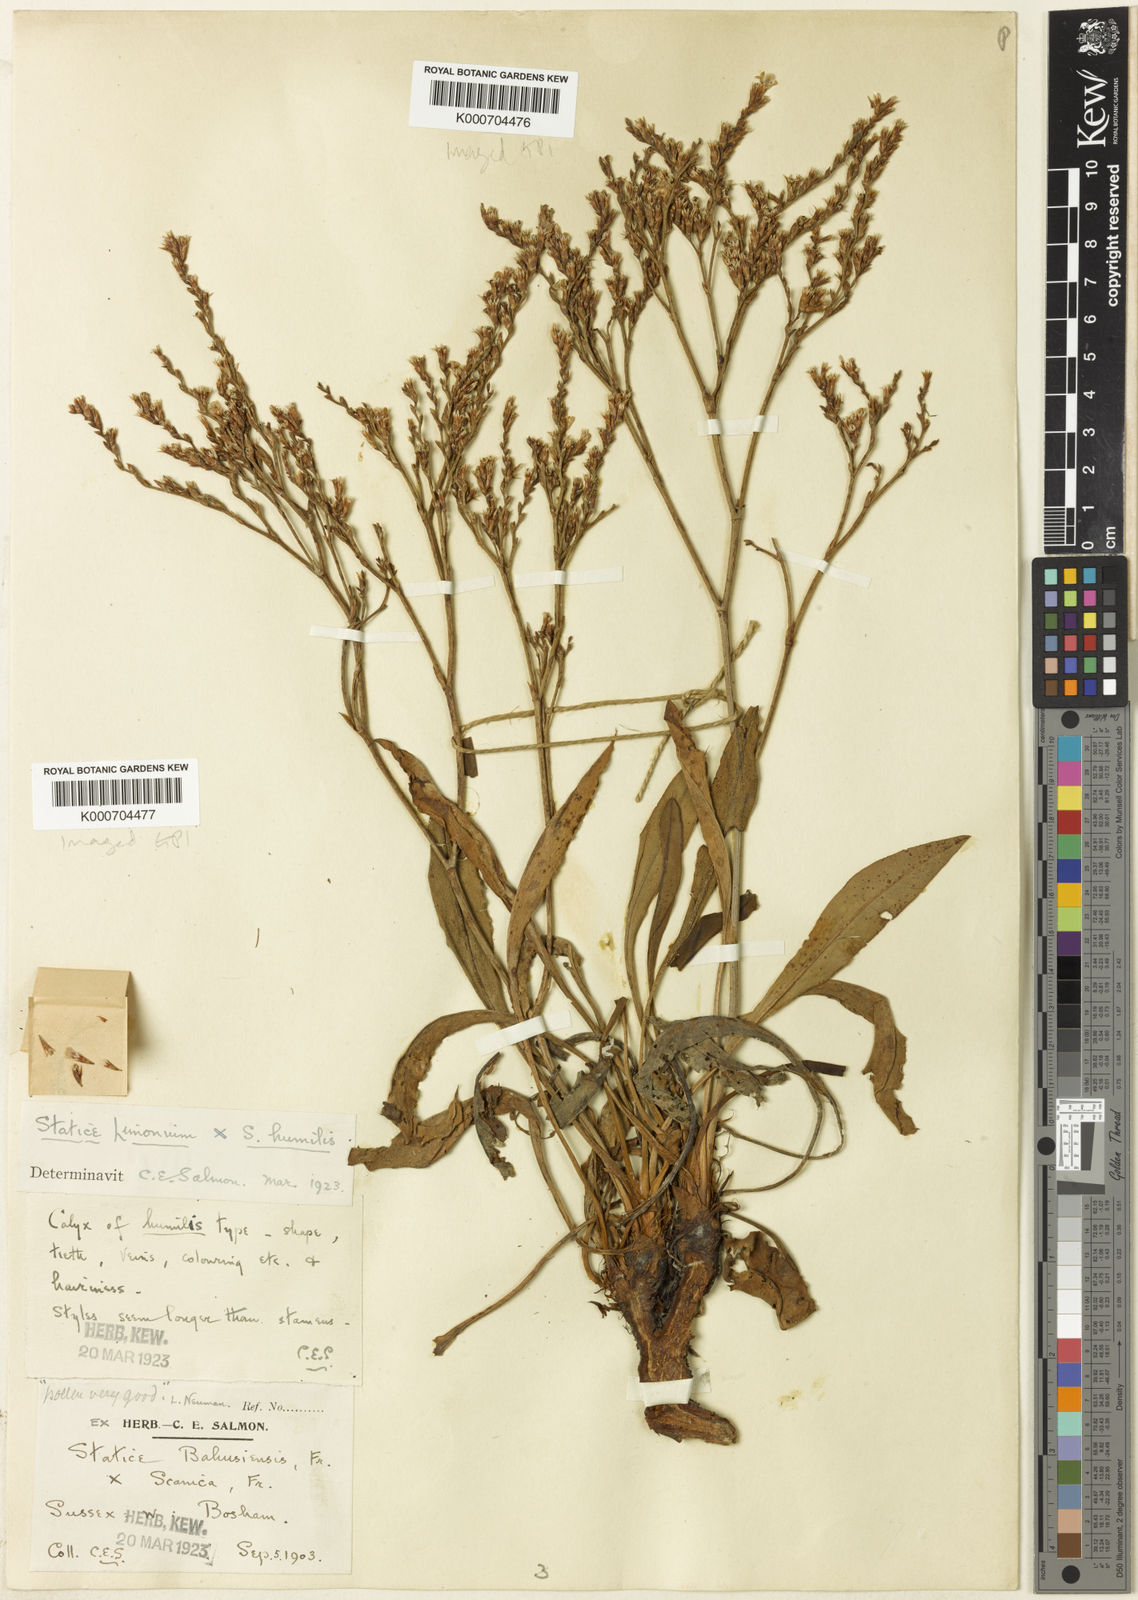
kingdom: Plantae
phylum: Tracheophyta
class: Magnoliopsida
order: Caryophyllales
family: Plumbaginaceae
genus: Limonium
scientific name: Limonium vulgare
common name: Common sea-lavender
